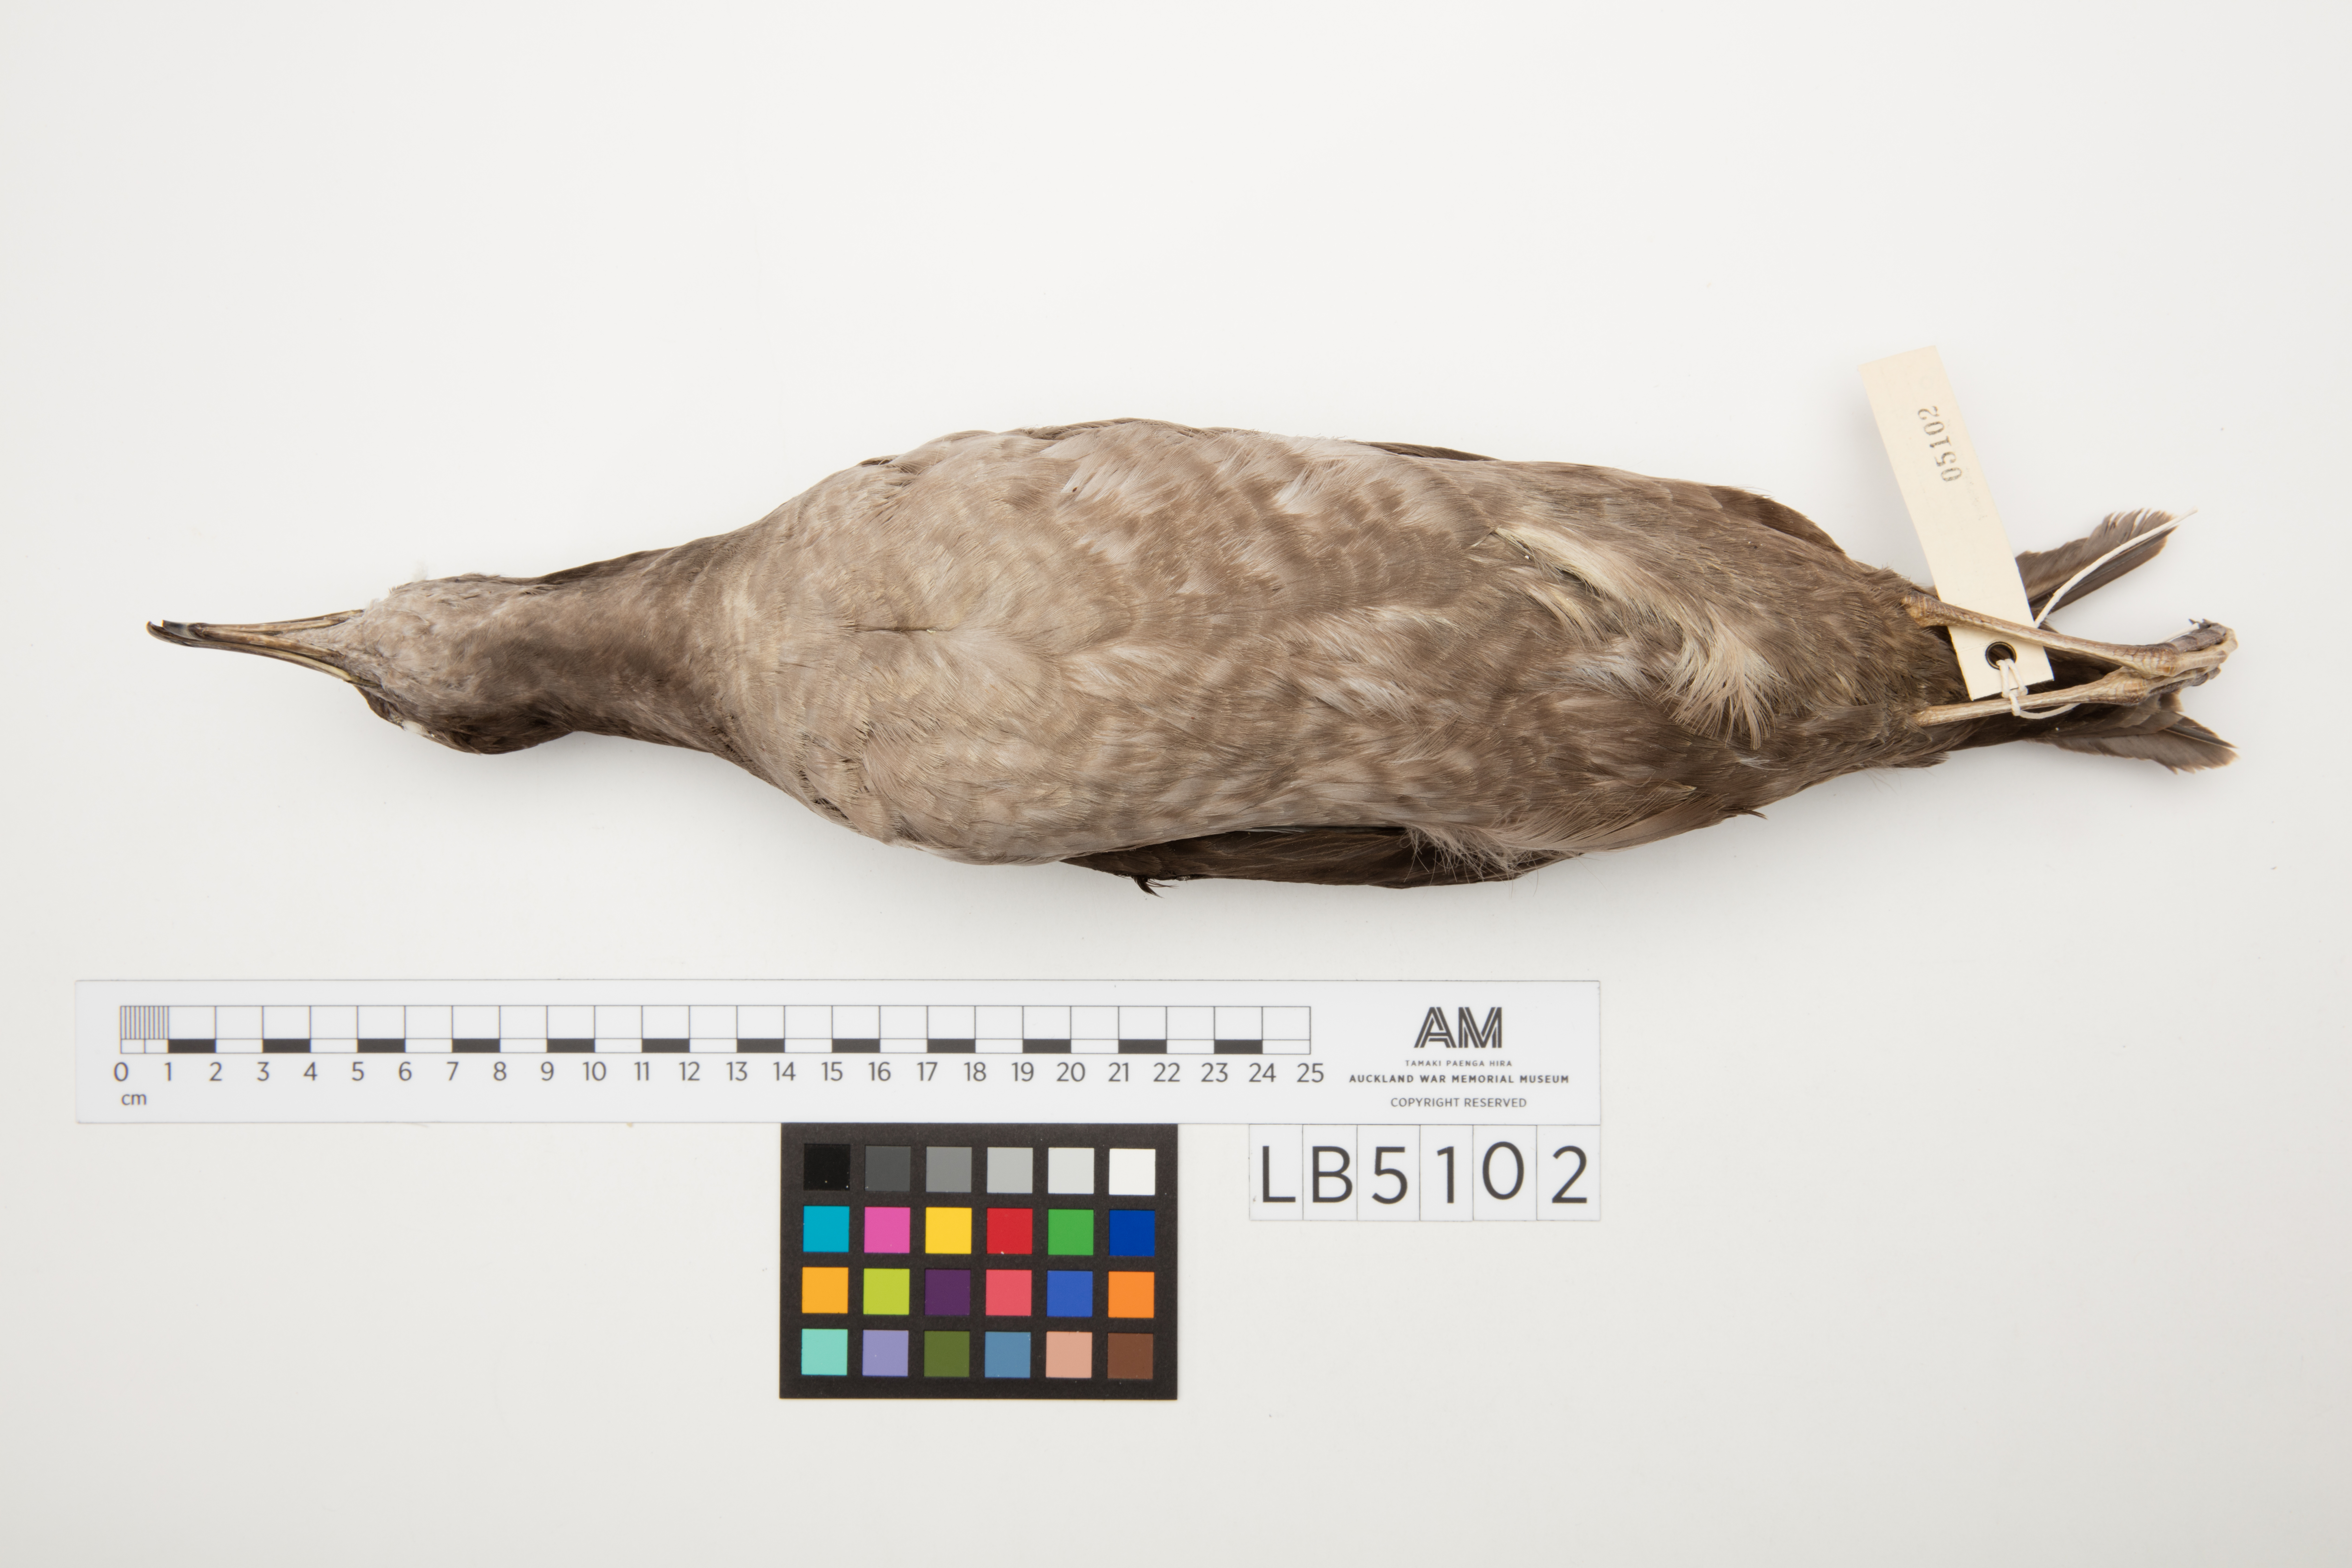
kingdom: Animalia
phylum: Chordata
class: Aves
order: Procellariiformes
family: Procellariidae
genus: Puffinus
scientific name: Puffinus tenuirostris
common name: Short-tailed shearwater
